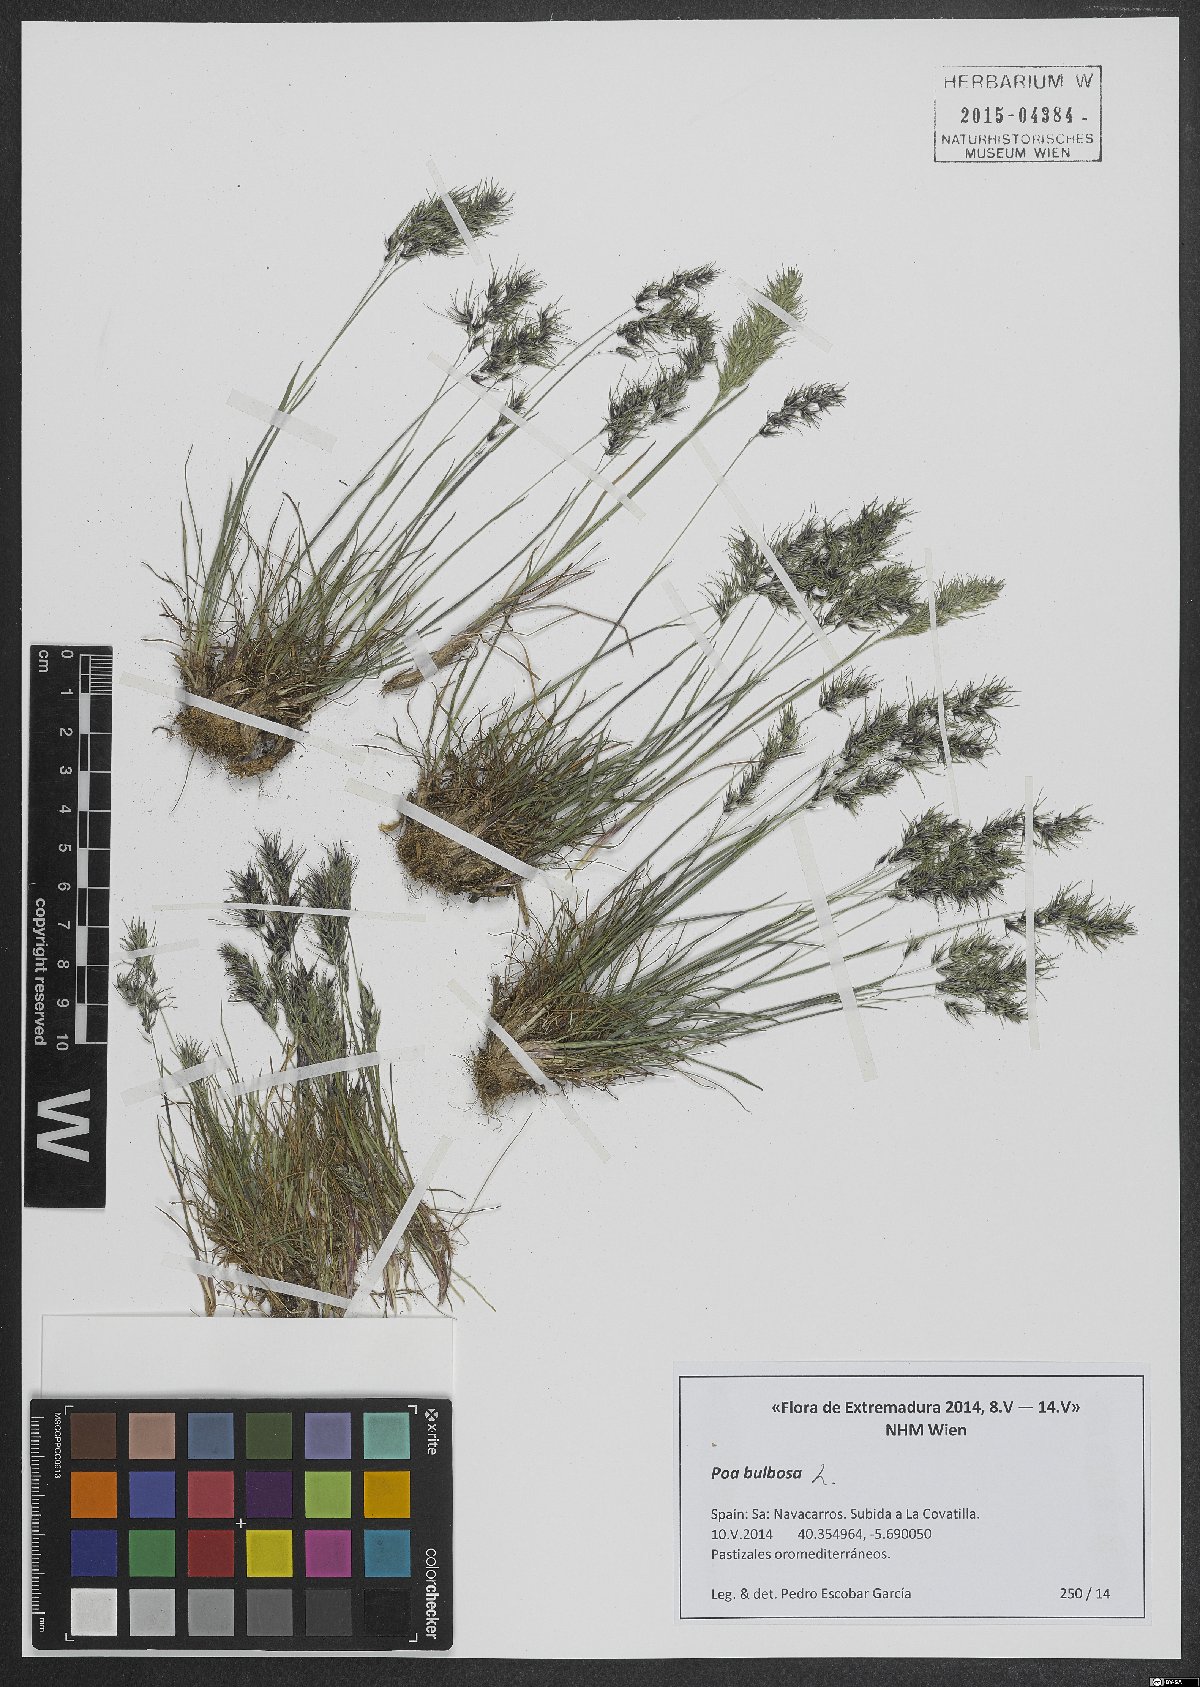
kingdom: Plantae
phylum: Tracheophyta
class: Liliopsida
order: Poales
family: Poaceae
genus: Poa
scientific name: Poa bulbosa
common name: Bulbous bluegrass
